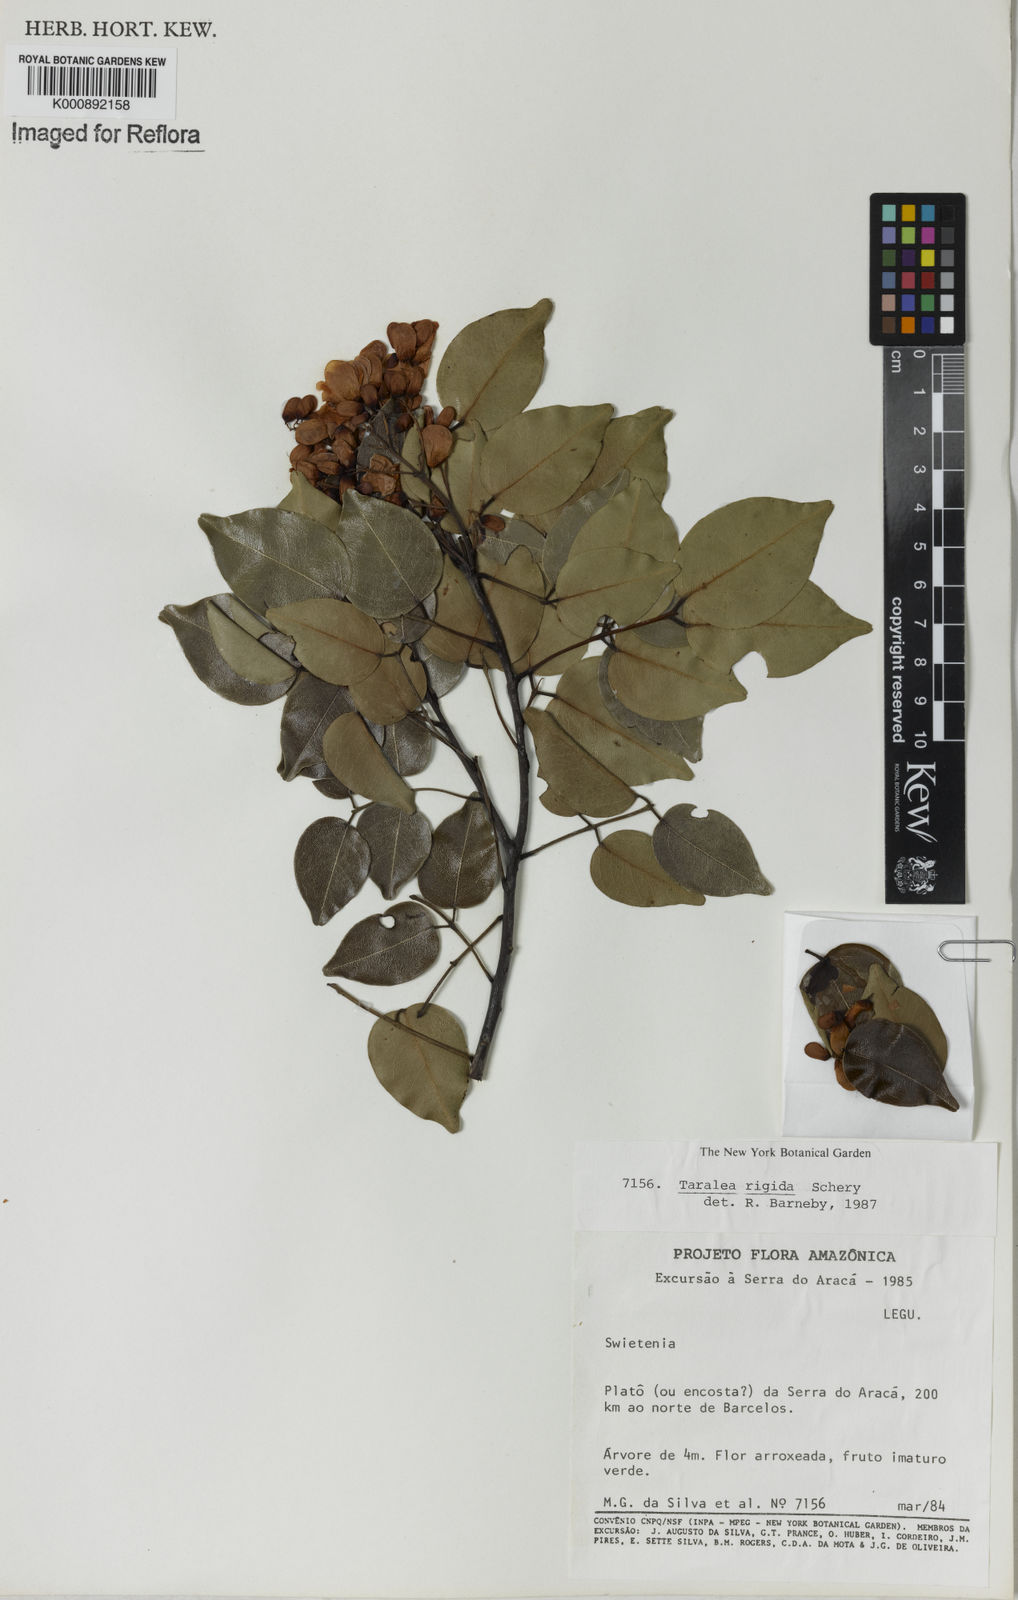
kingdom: Plantae
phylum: Tracheophyta
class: Magnoliopsida
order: Fabales
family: Fabaceae
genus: Taralea
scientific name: Taralea cordata
